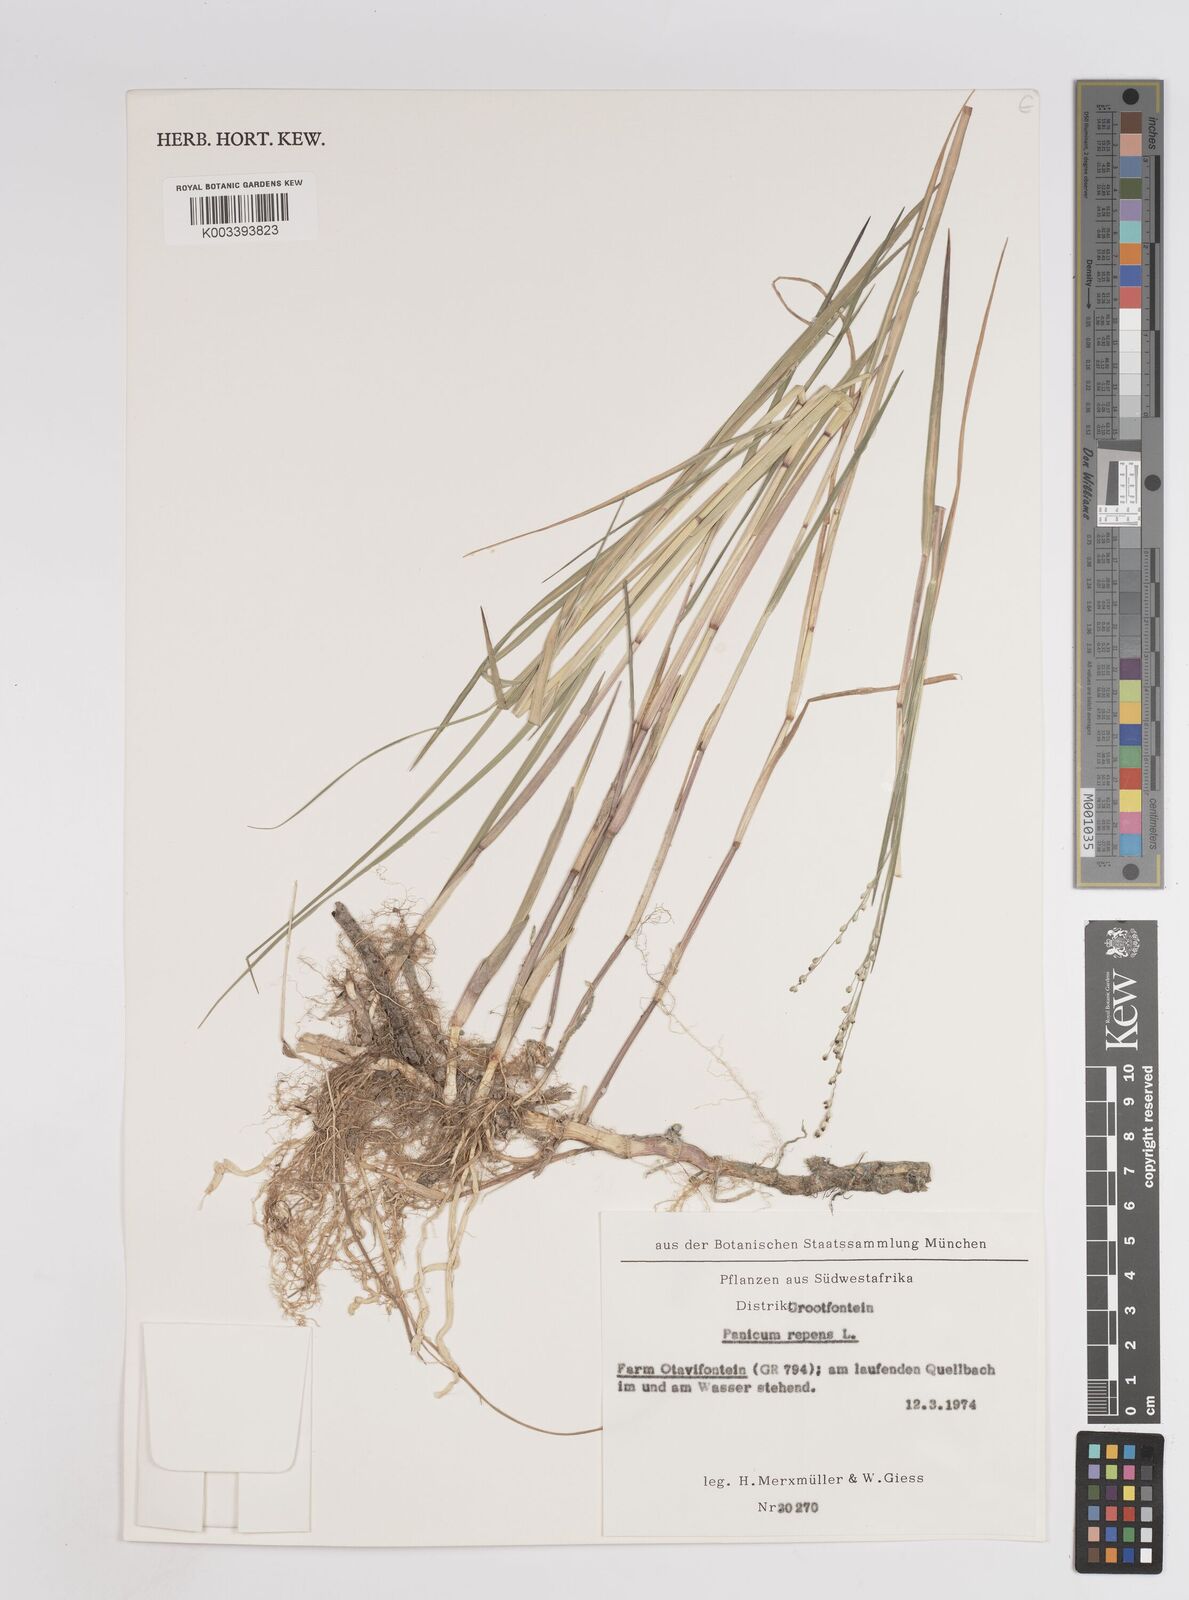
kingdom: Plantae
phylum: Tracheophyta
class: Liliopsida
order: Poales
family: Poaceae
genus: Panicum
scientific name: Panicum repens
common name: Torpedo grass
